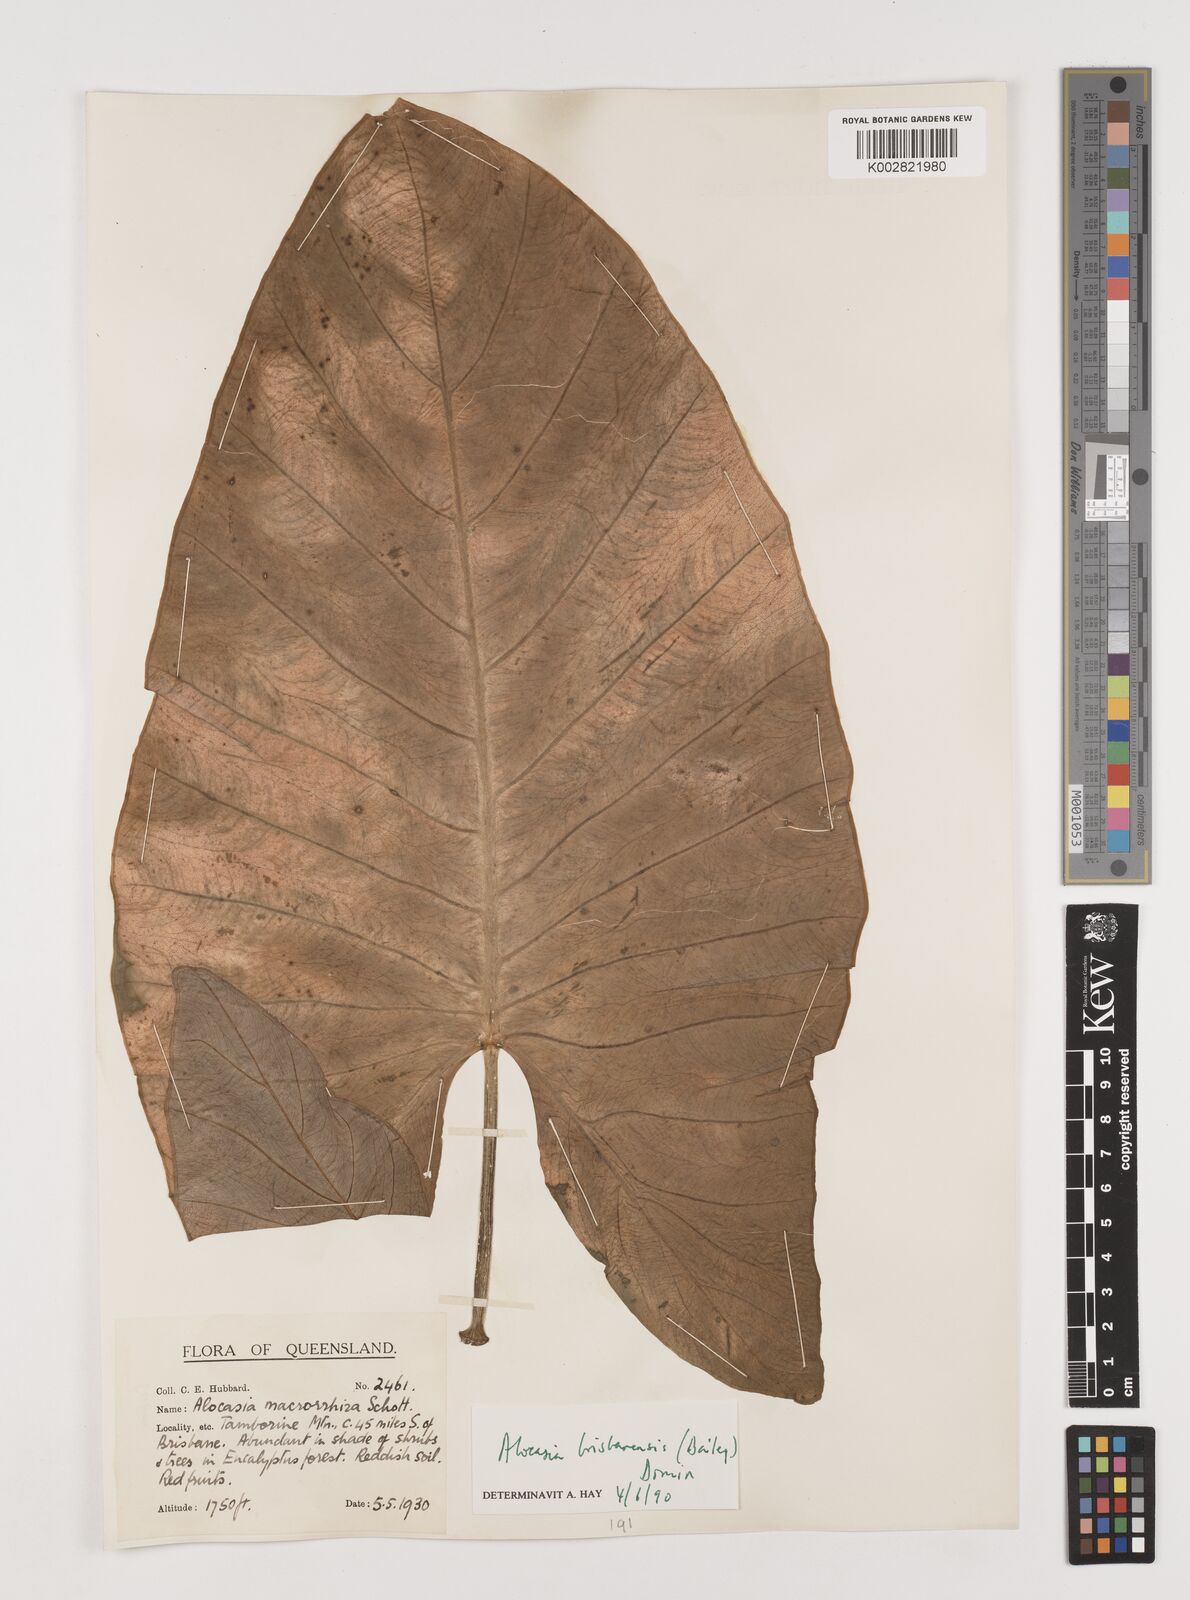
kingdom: Plantae
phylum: Tracheophyta
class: Liliopsida
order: Alismatales
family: Araceae
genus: Alocasia
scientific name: Alocasia brisbanensis
